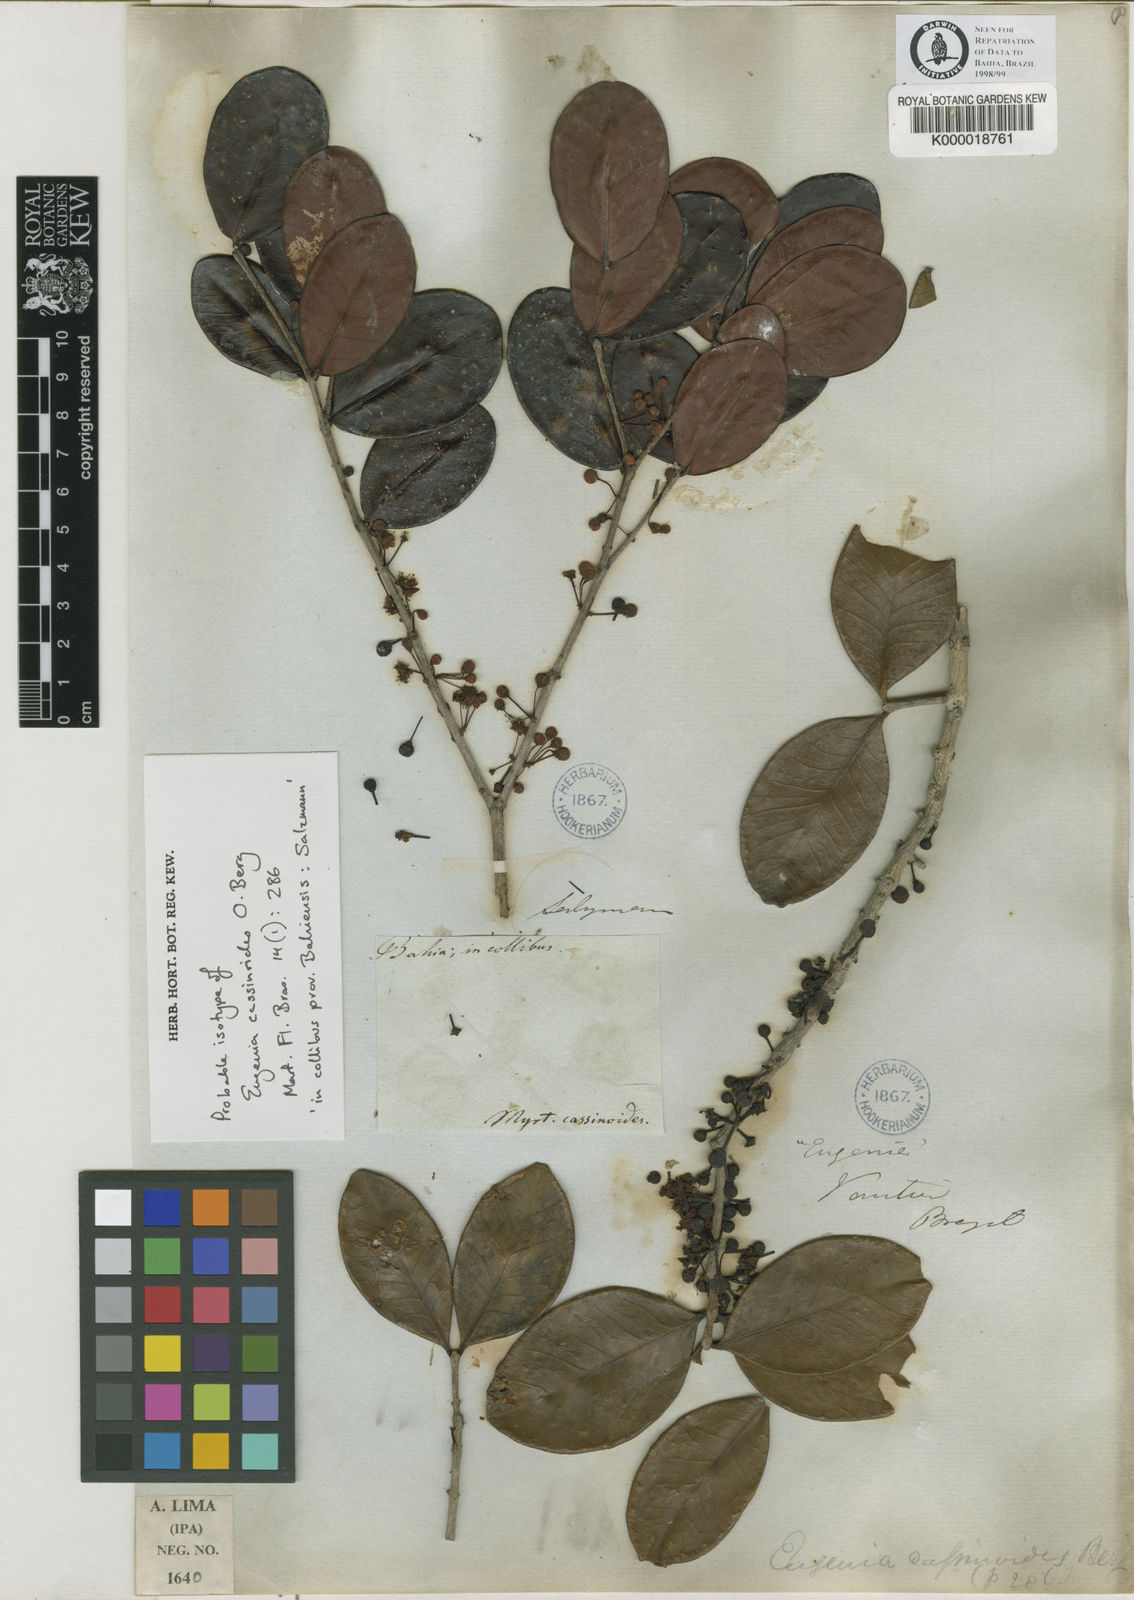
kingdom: Plantae
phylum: Tracheophyta
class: Magnoliopsida
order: Myrtales
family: Myrtaceae
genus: Eugenia
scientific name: Eugenia astringens
